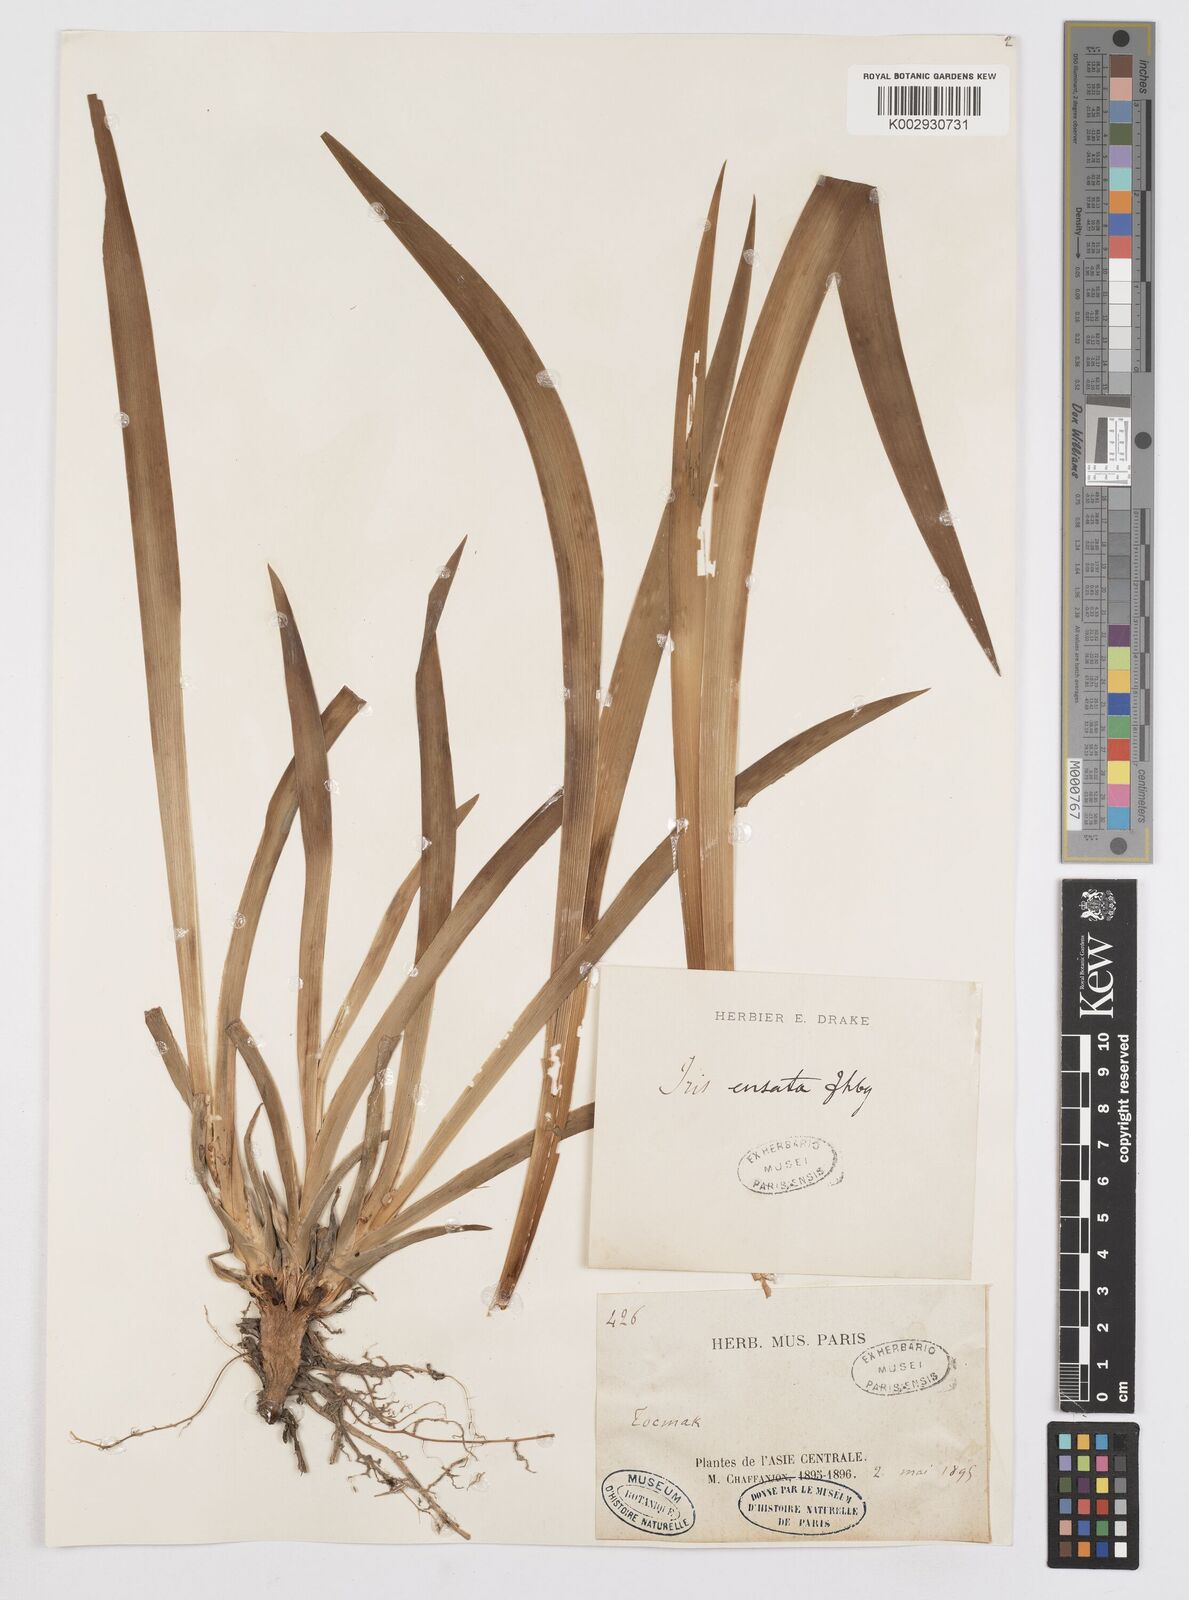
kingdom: Plantae
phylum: Tracheophyta
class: Liliopsida
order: Asparagales
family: Iridaceae
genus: Iris
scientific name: Iris ensata
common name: Beaked iris
